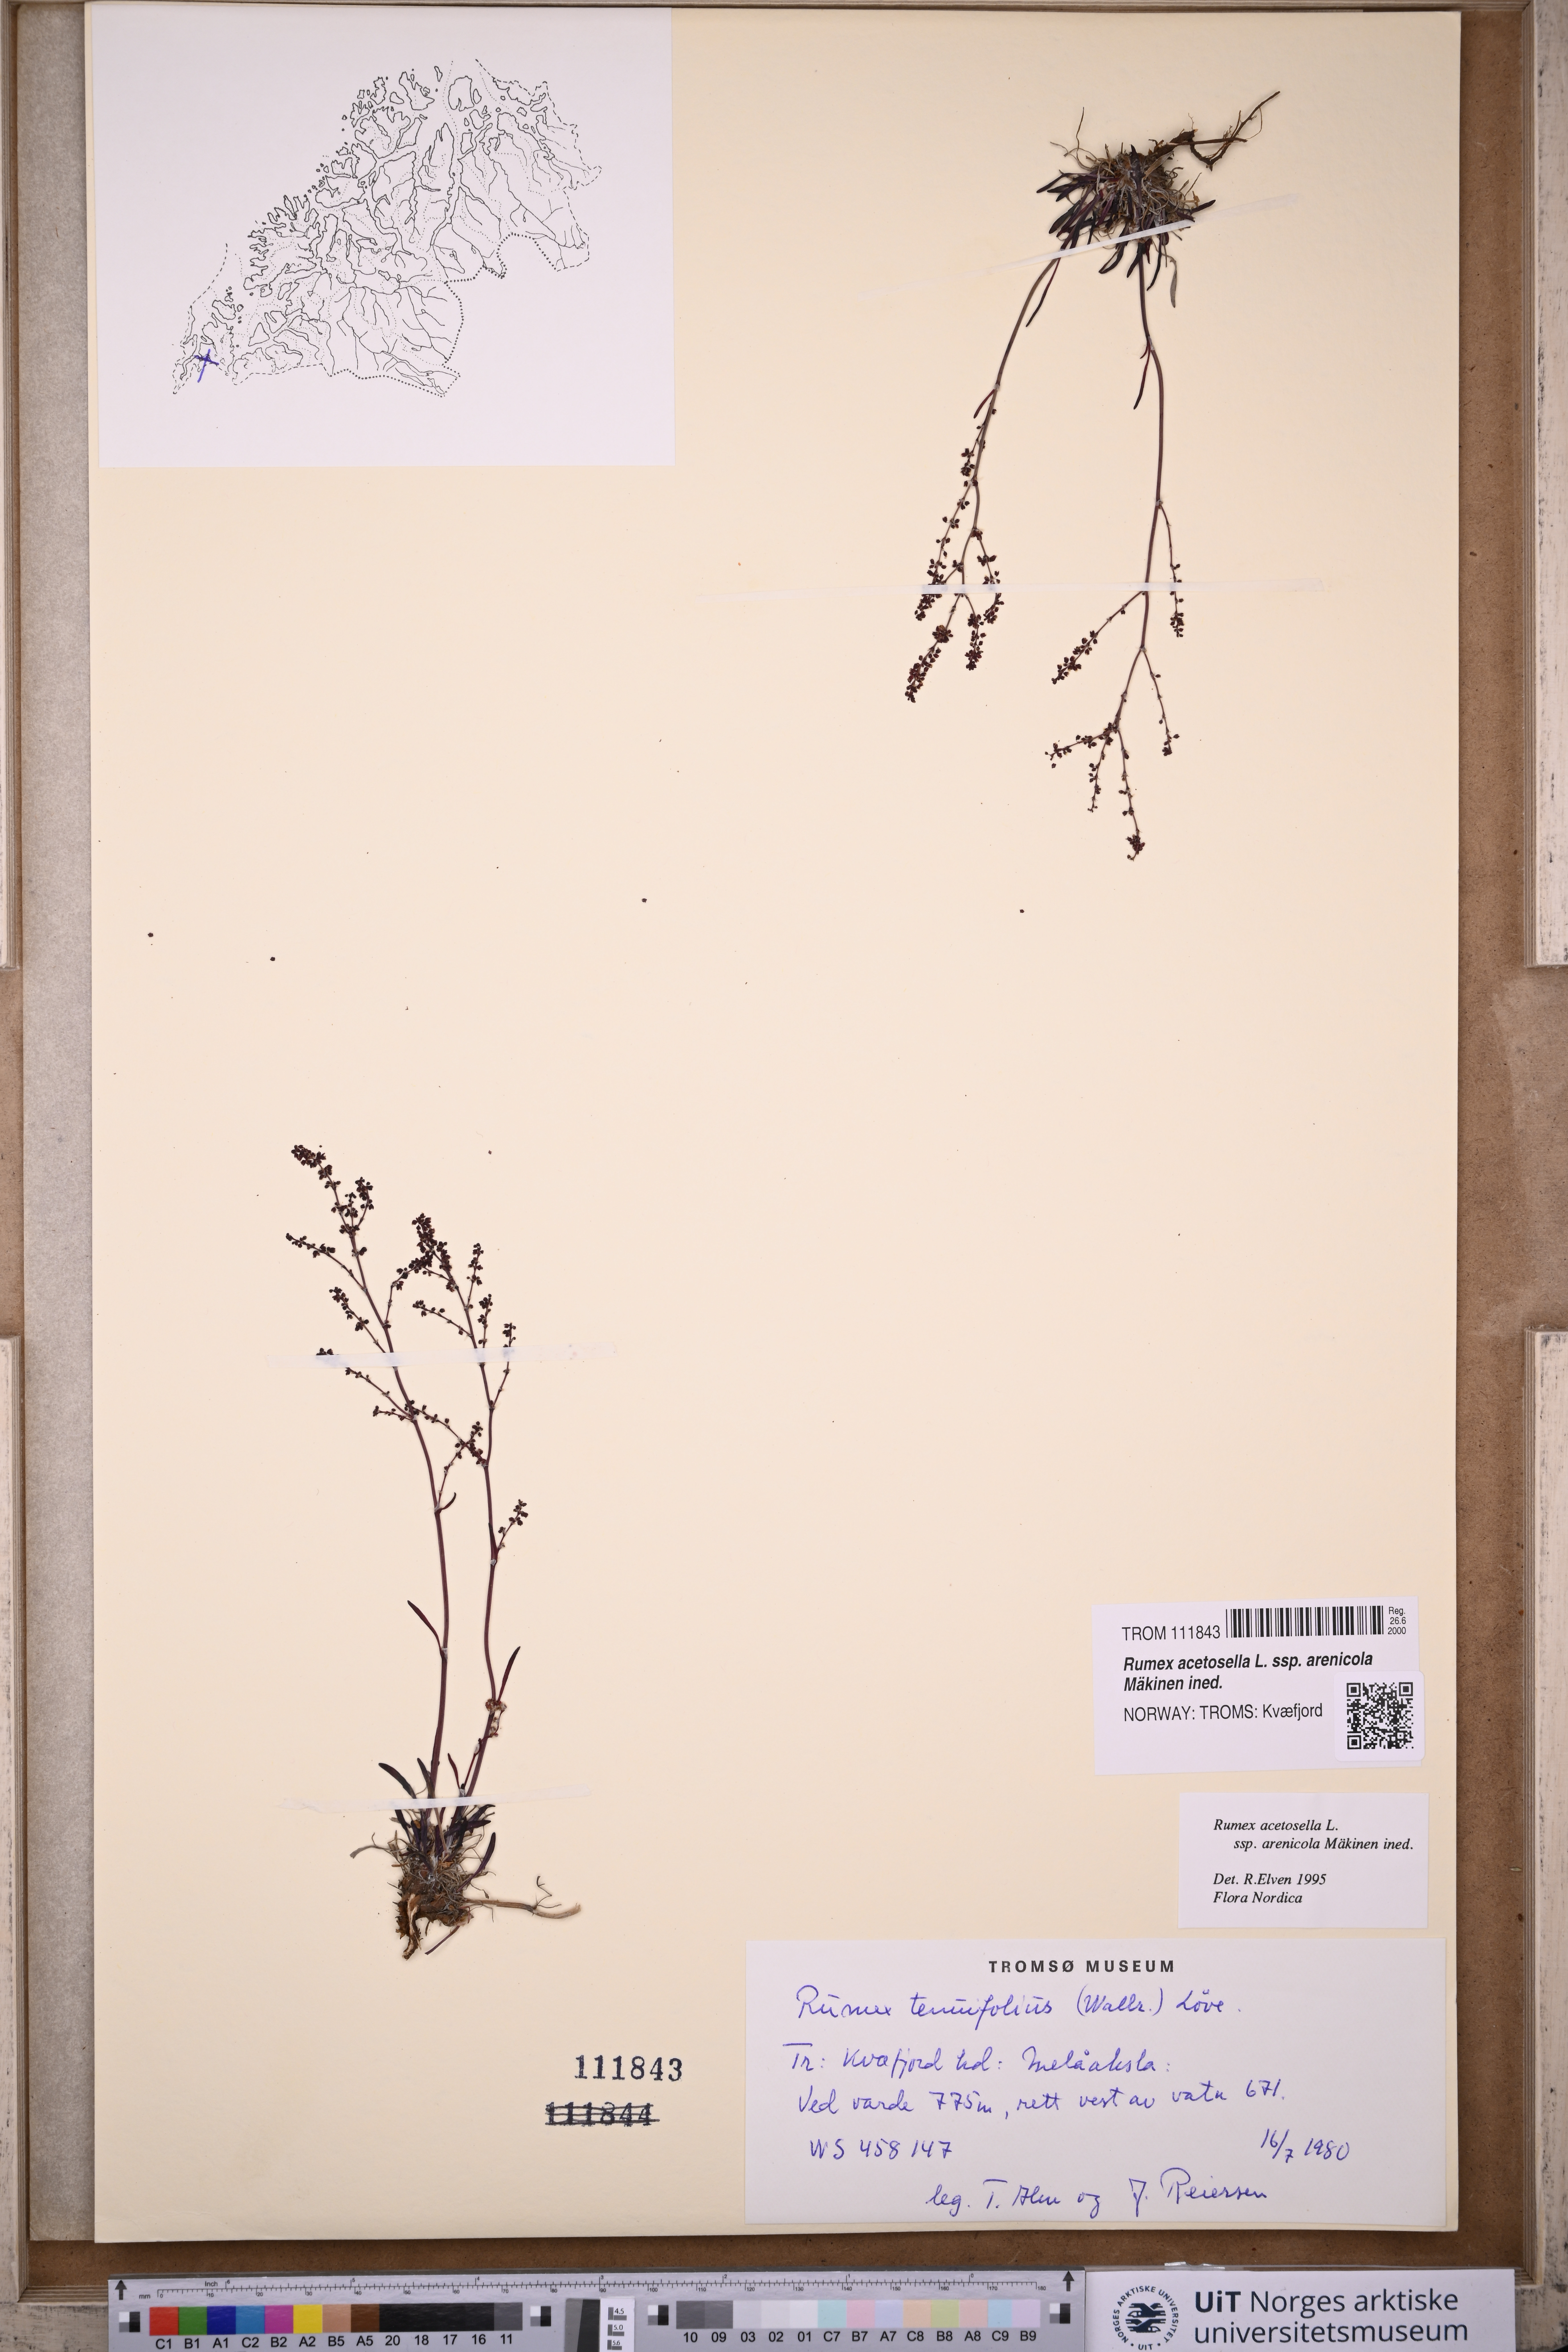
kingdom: Plantae
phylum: Tracheophyta
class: Magnoliopsida
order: Caryophyllales
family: Polygonaceae
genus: Rumex
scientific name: Rumex acetosella
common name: Common sheep sorrel
